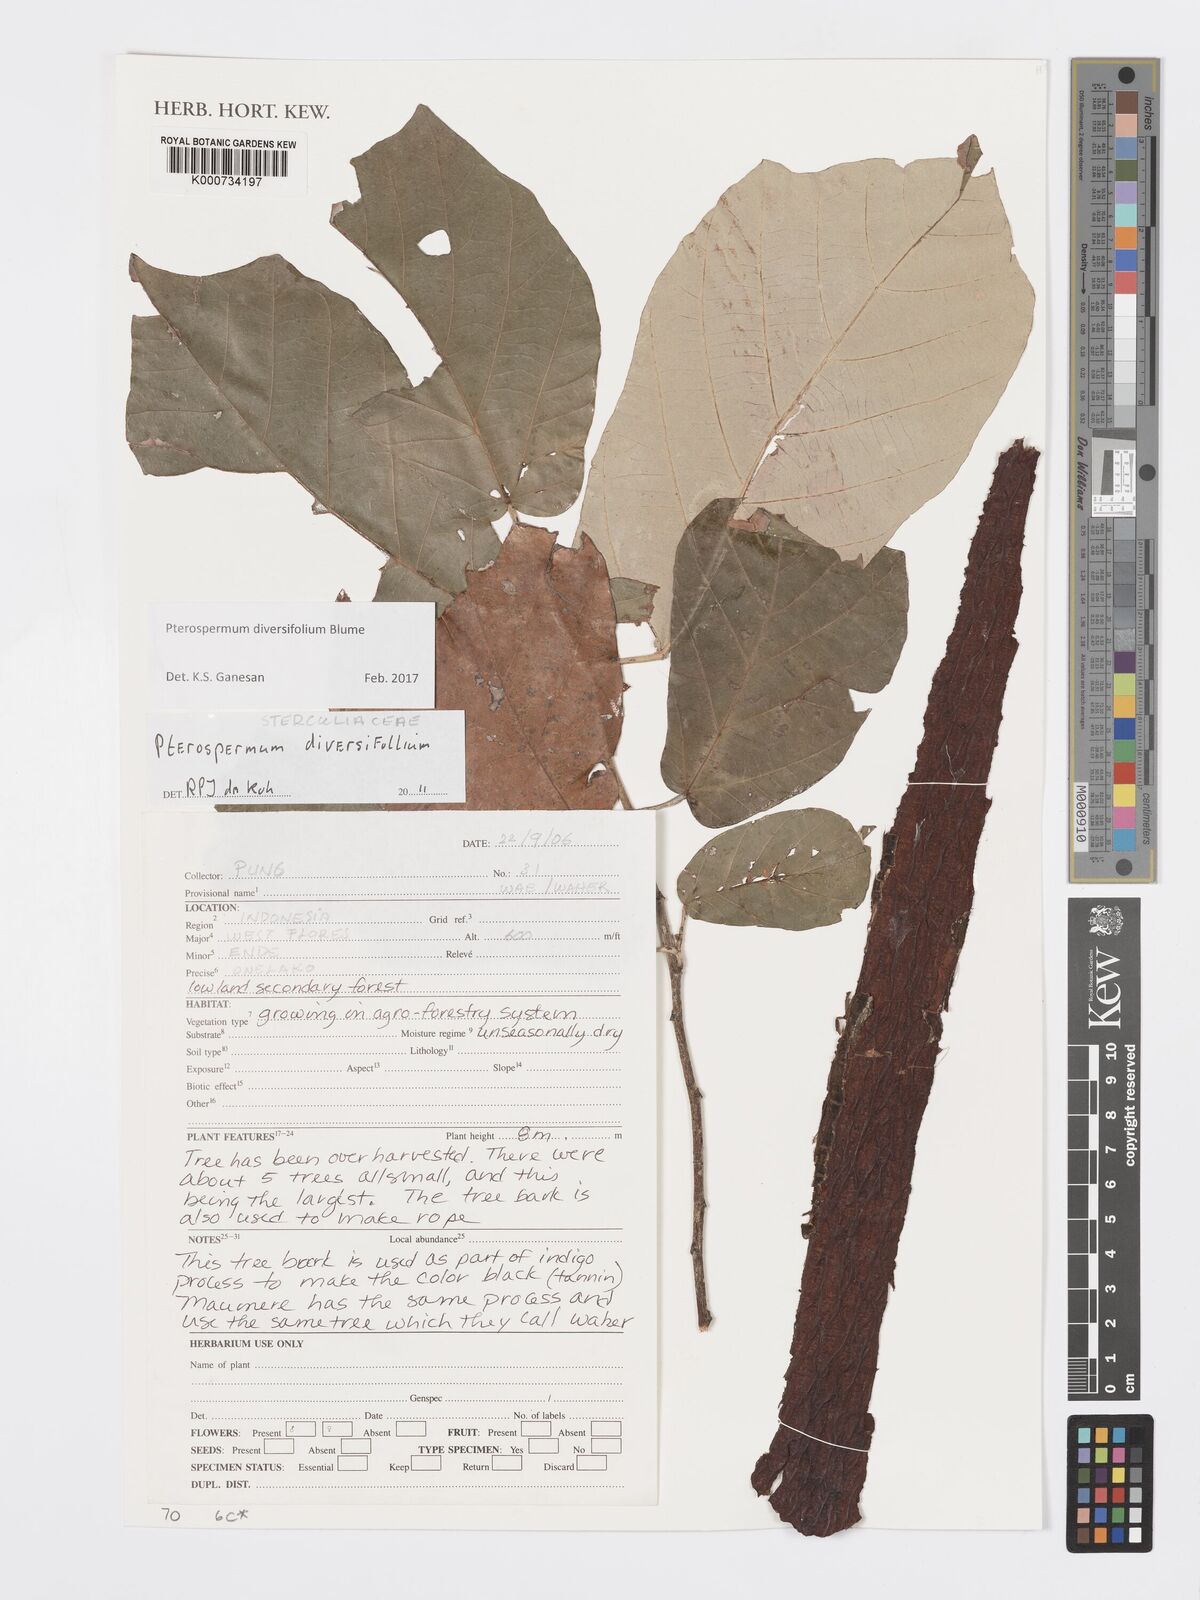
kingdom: Plantae
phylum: Tracheophyta
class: Magnoliopsida
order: Malvales
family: Malvaceae
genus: Pterospermum
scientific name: Pterospermum diversifolium
